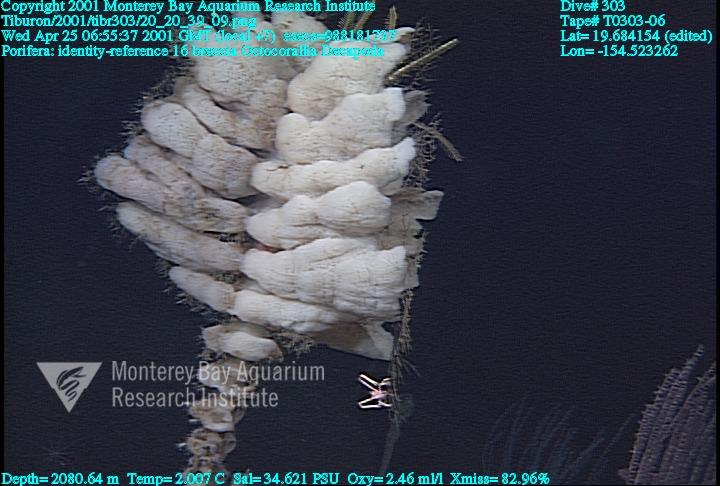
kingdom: Animalia
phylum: Porifera
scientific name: Porifera
